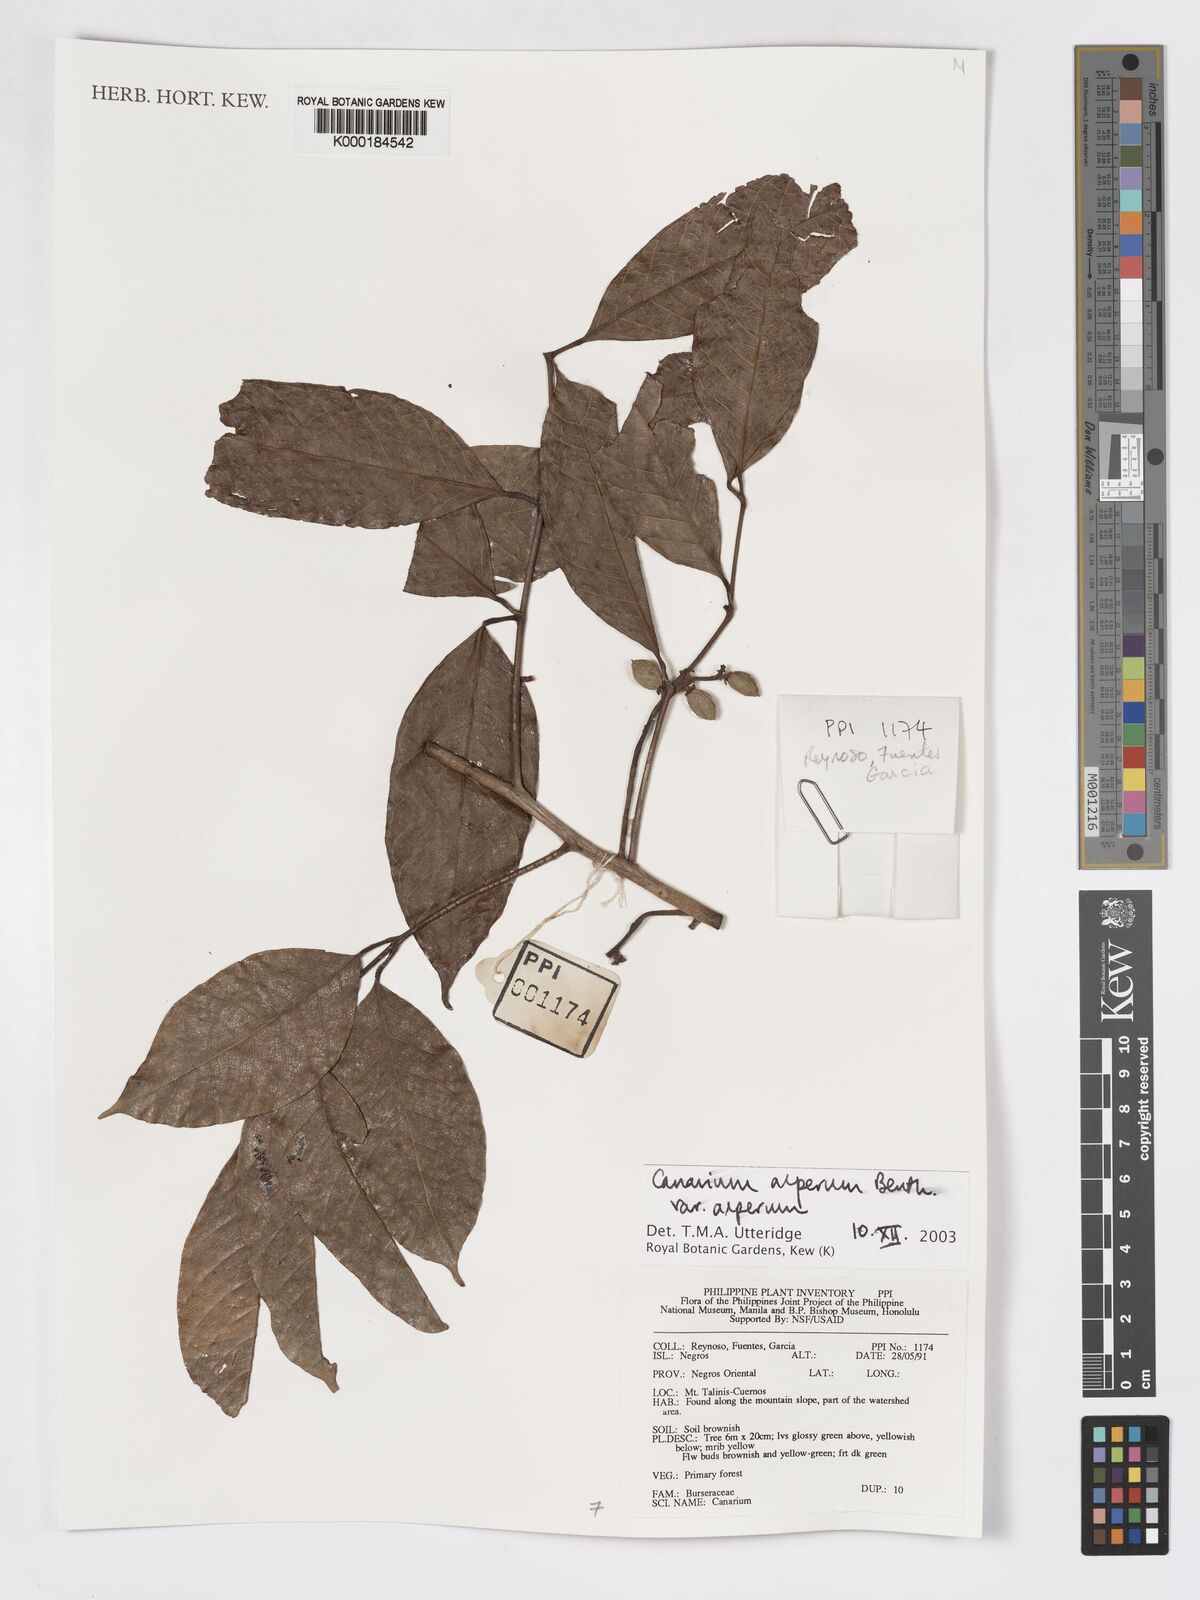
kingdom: Plantae
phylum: Tracheophyta
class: Magnoliopsida
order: Sapindales
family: Burseraceae
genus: Canarium
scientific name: Canarium asperum
